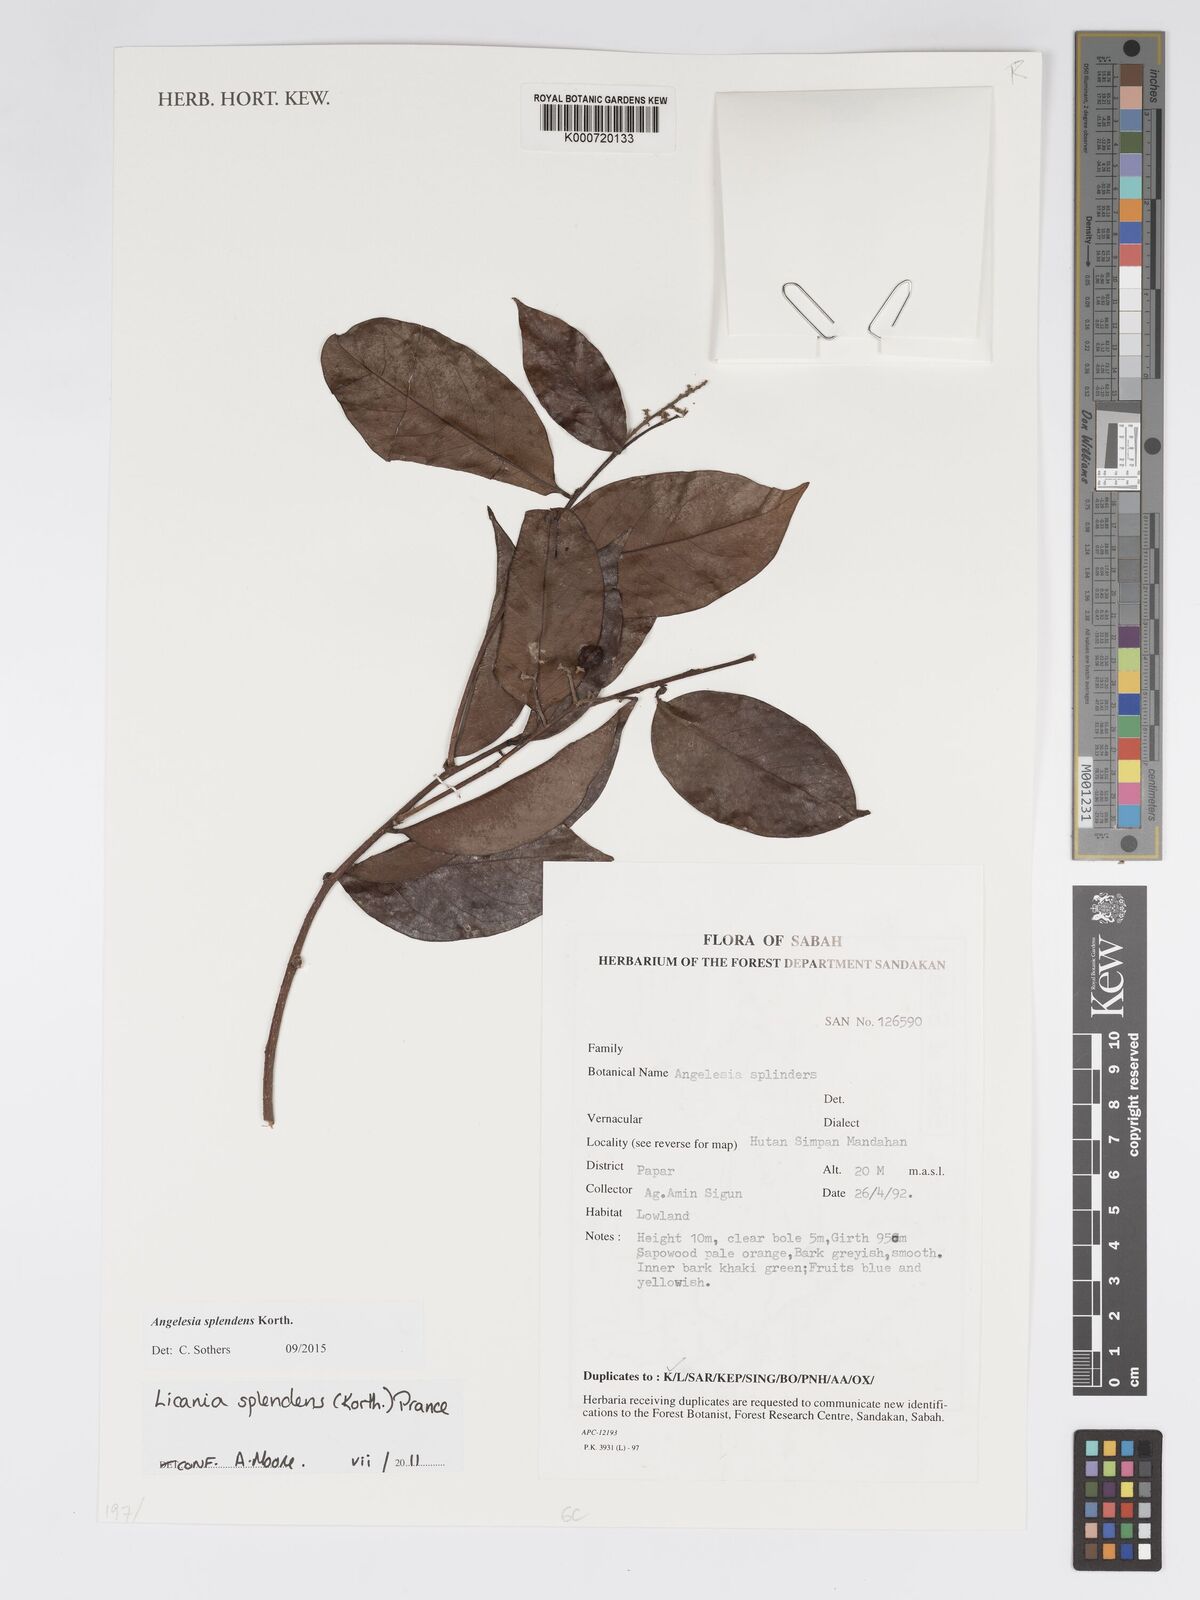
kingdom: Plantae
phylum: Tracheophyta
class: Magnoliopsida
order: Malpighiales
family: Chrysobalanaceae
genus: Angelesia
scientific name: Angelesia splendens
